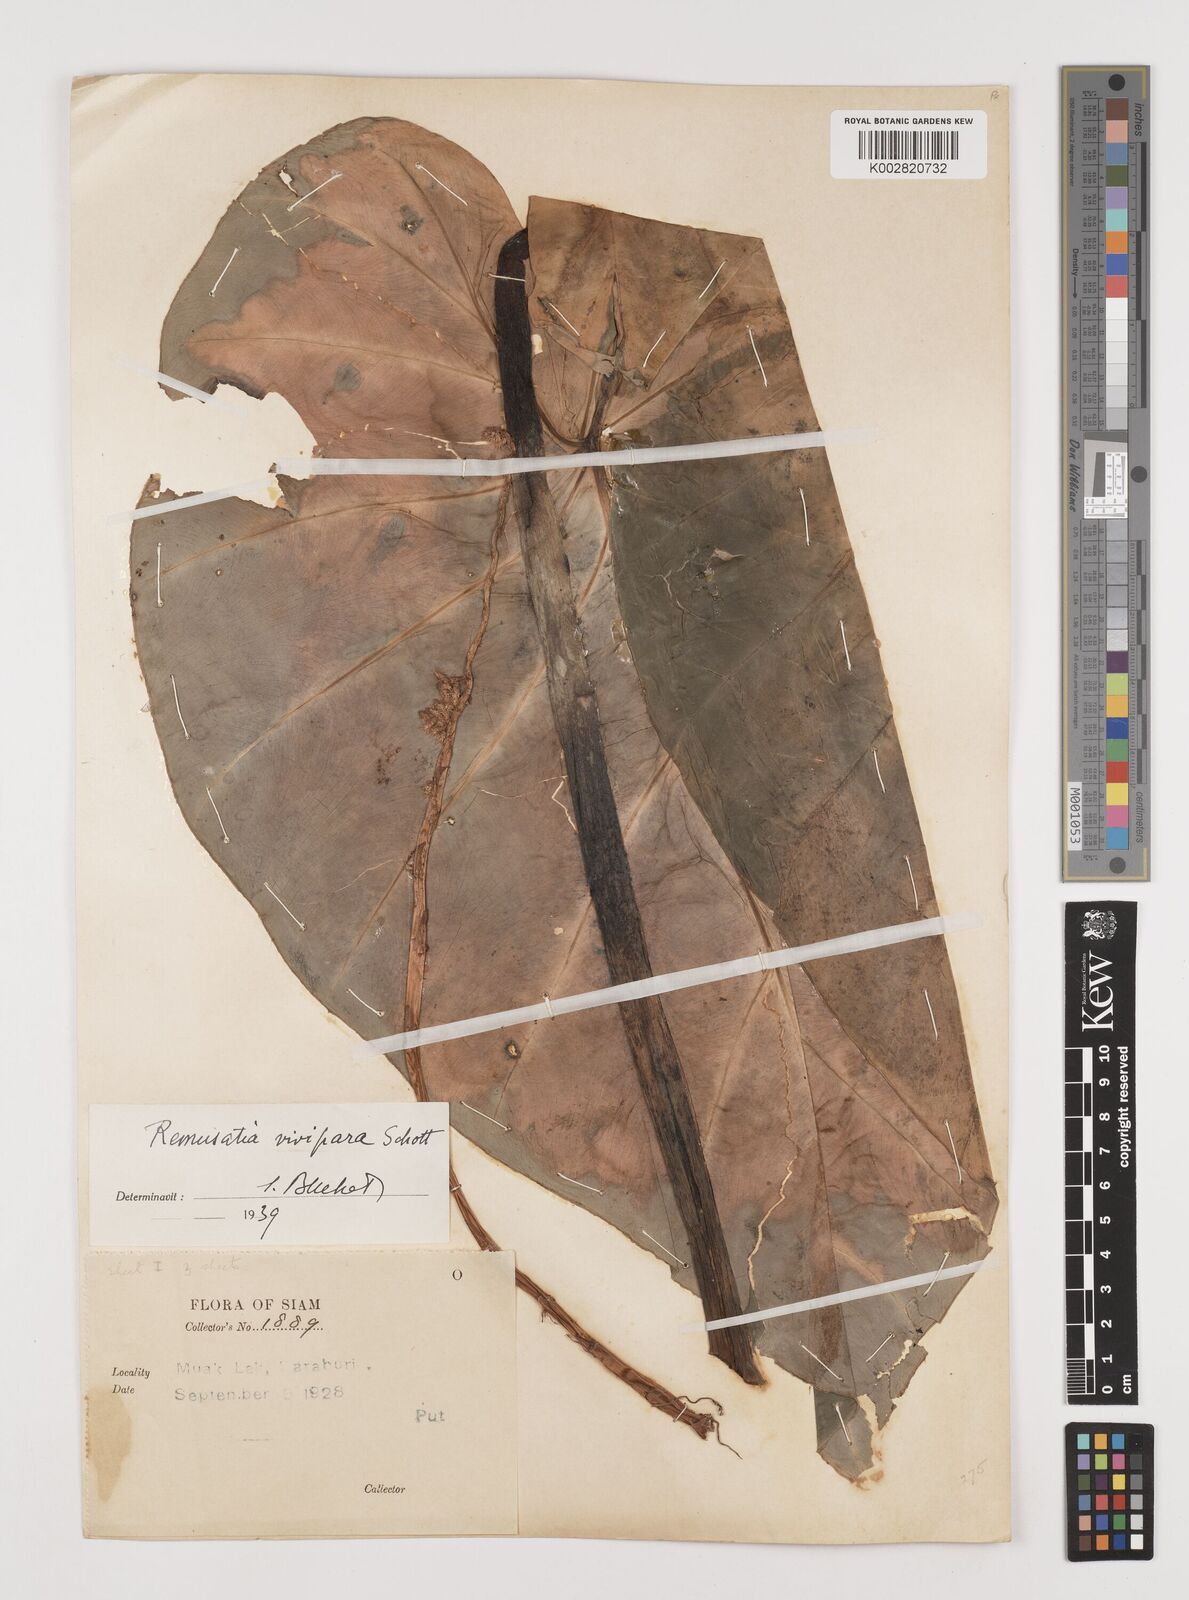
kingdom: Plantae
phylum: Tracheophyta
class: Liliopsida
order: Alismatales
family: Araceae
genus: Remusatia
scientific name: Remusatia vivipara
